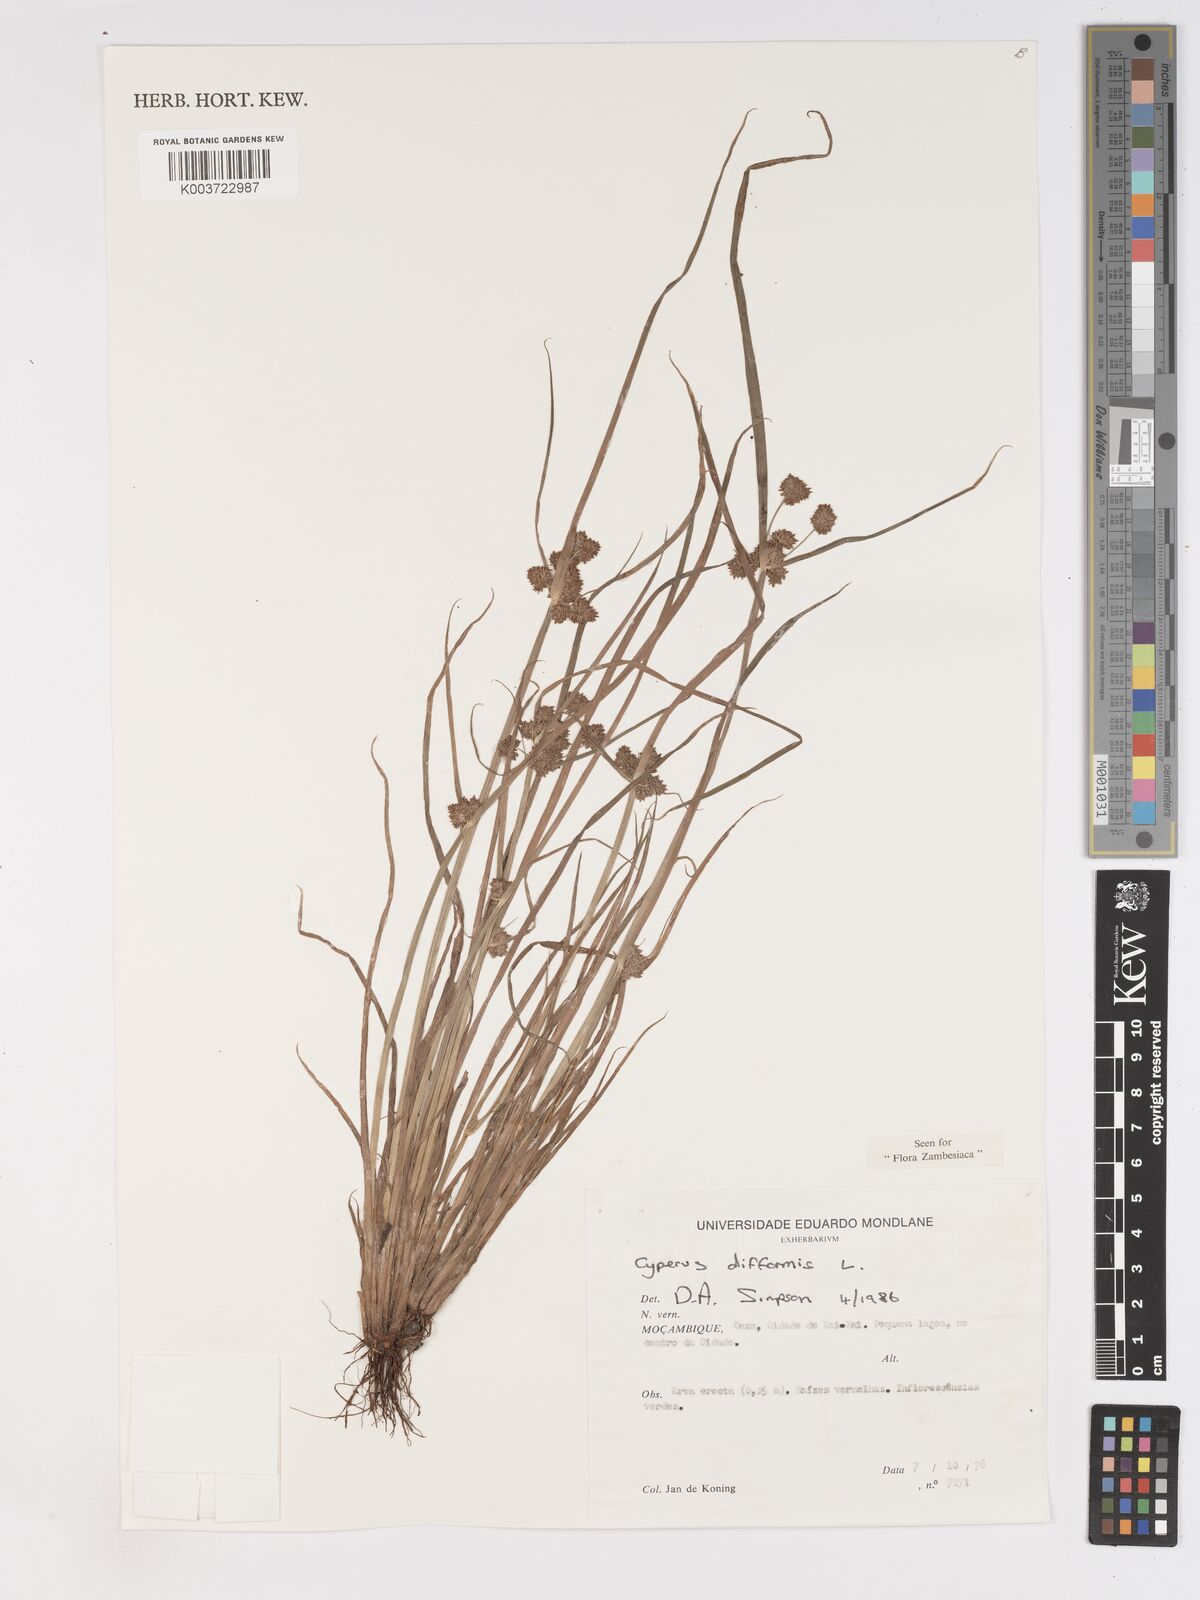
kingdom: Plantae
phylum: Tracheophyta
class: Liliopsida
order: Poales
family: Cyperaceae
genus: Cyperus
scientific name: Cyperus difformis
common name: Variable flatsedge
